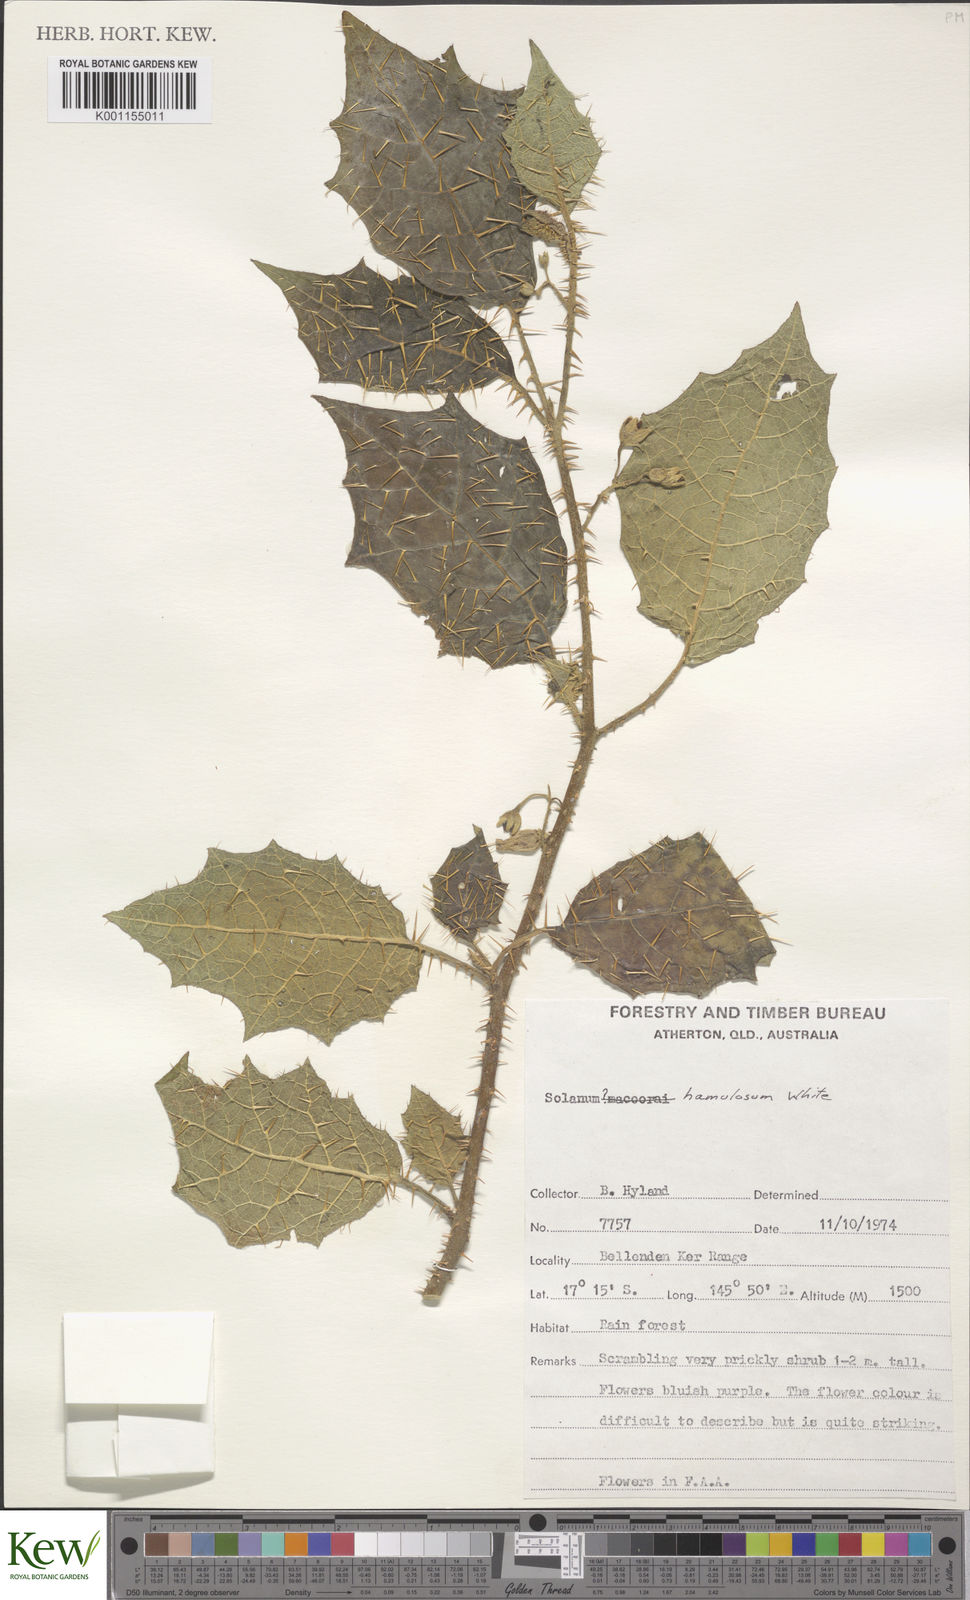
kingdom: Plantae
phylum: Tracheophyta
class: Magnoliopsida
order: Solanales
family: Solanaceae
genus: Solanum
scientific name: Solanum hamulosum
